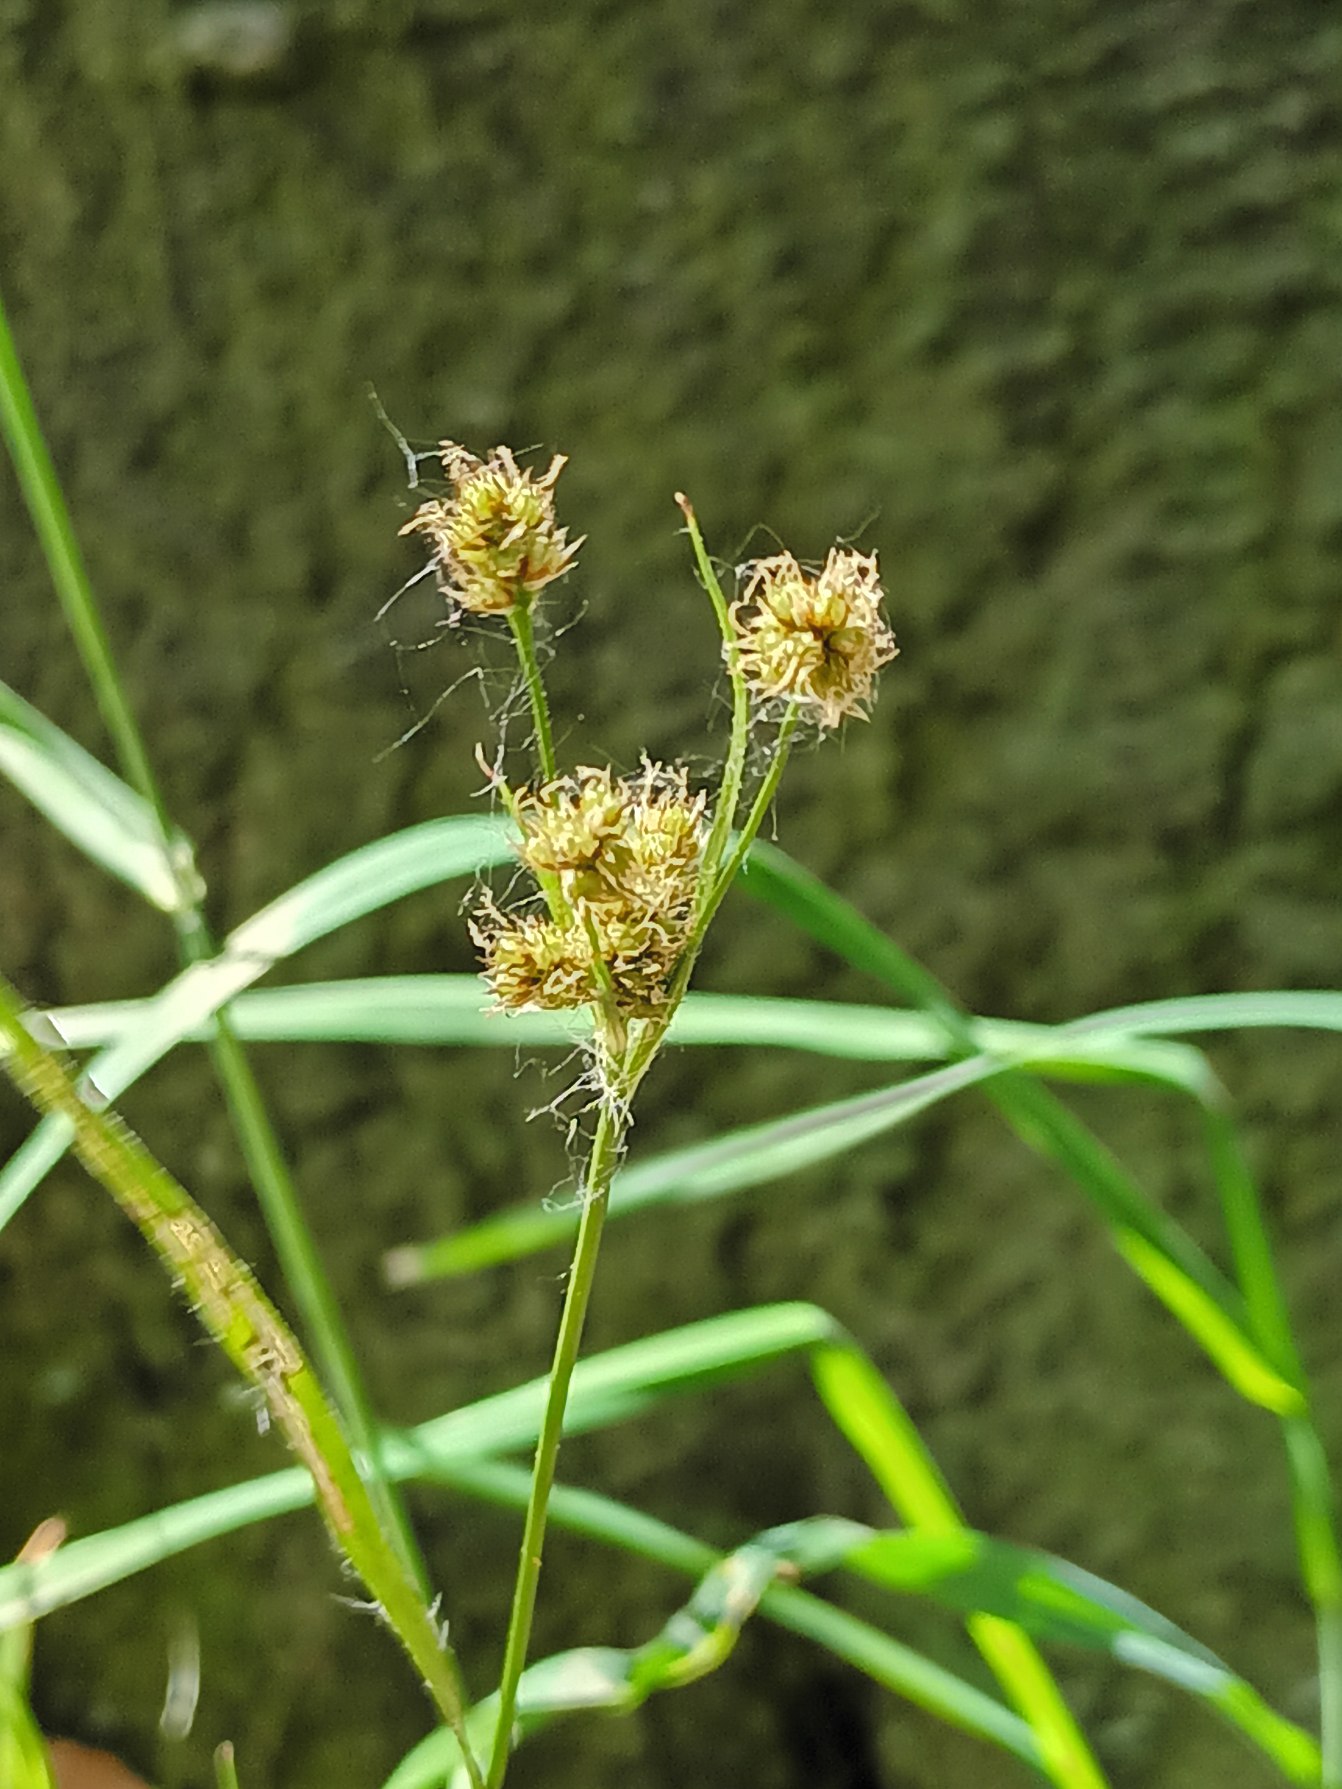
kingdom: Plantae
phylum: Tracheophyta
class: Liliopsida
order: Poales
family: Juncaceae
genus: Luzula
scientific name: Luzula multiflora
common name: Mangeblomstret frytle
